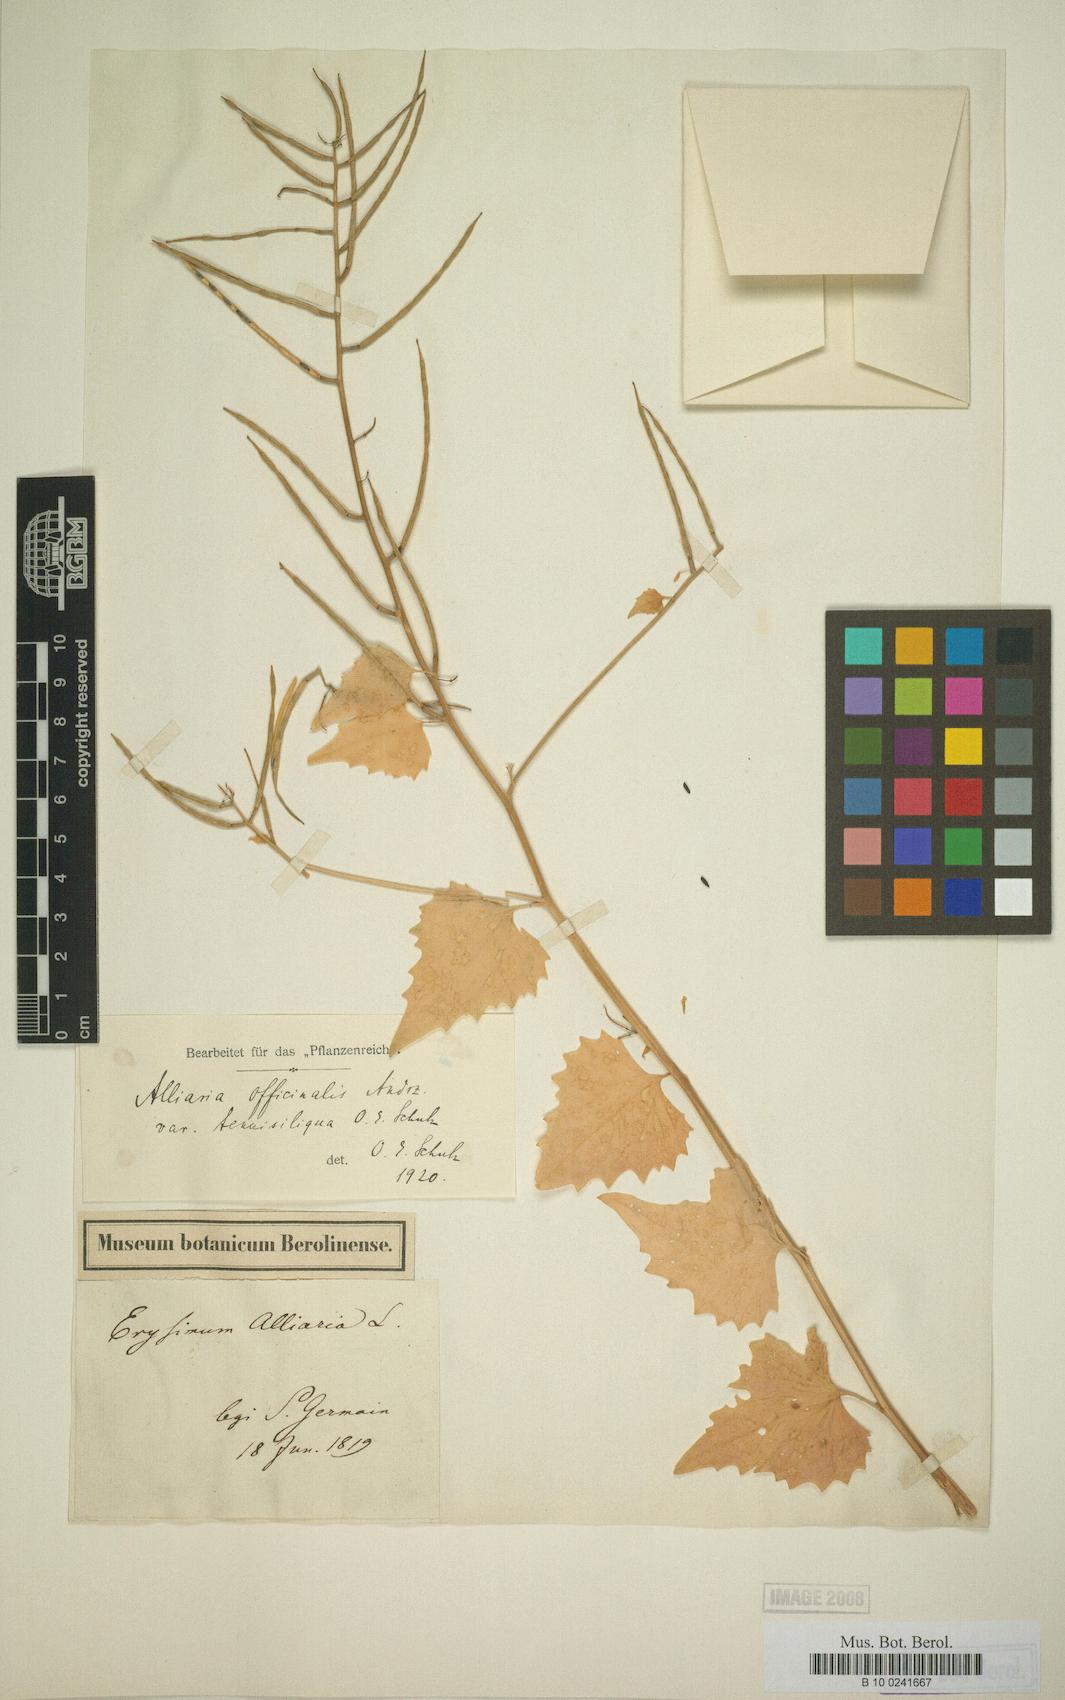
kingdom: Plantae
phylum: Tracheophyta
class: Magnoliopsida
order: Brassicales
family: Brassicaceae
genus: Alliaria
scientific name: Alliaria petiolata
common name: Garlic mustard
